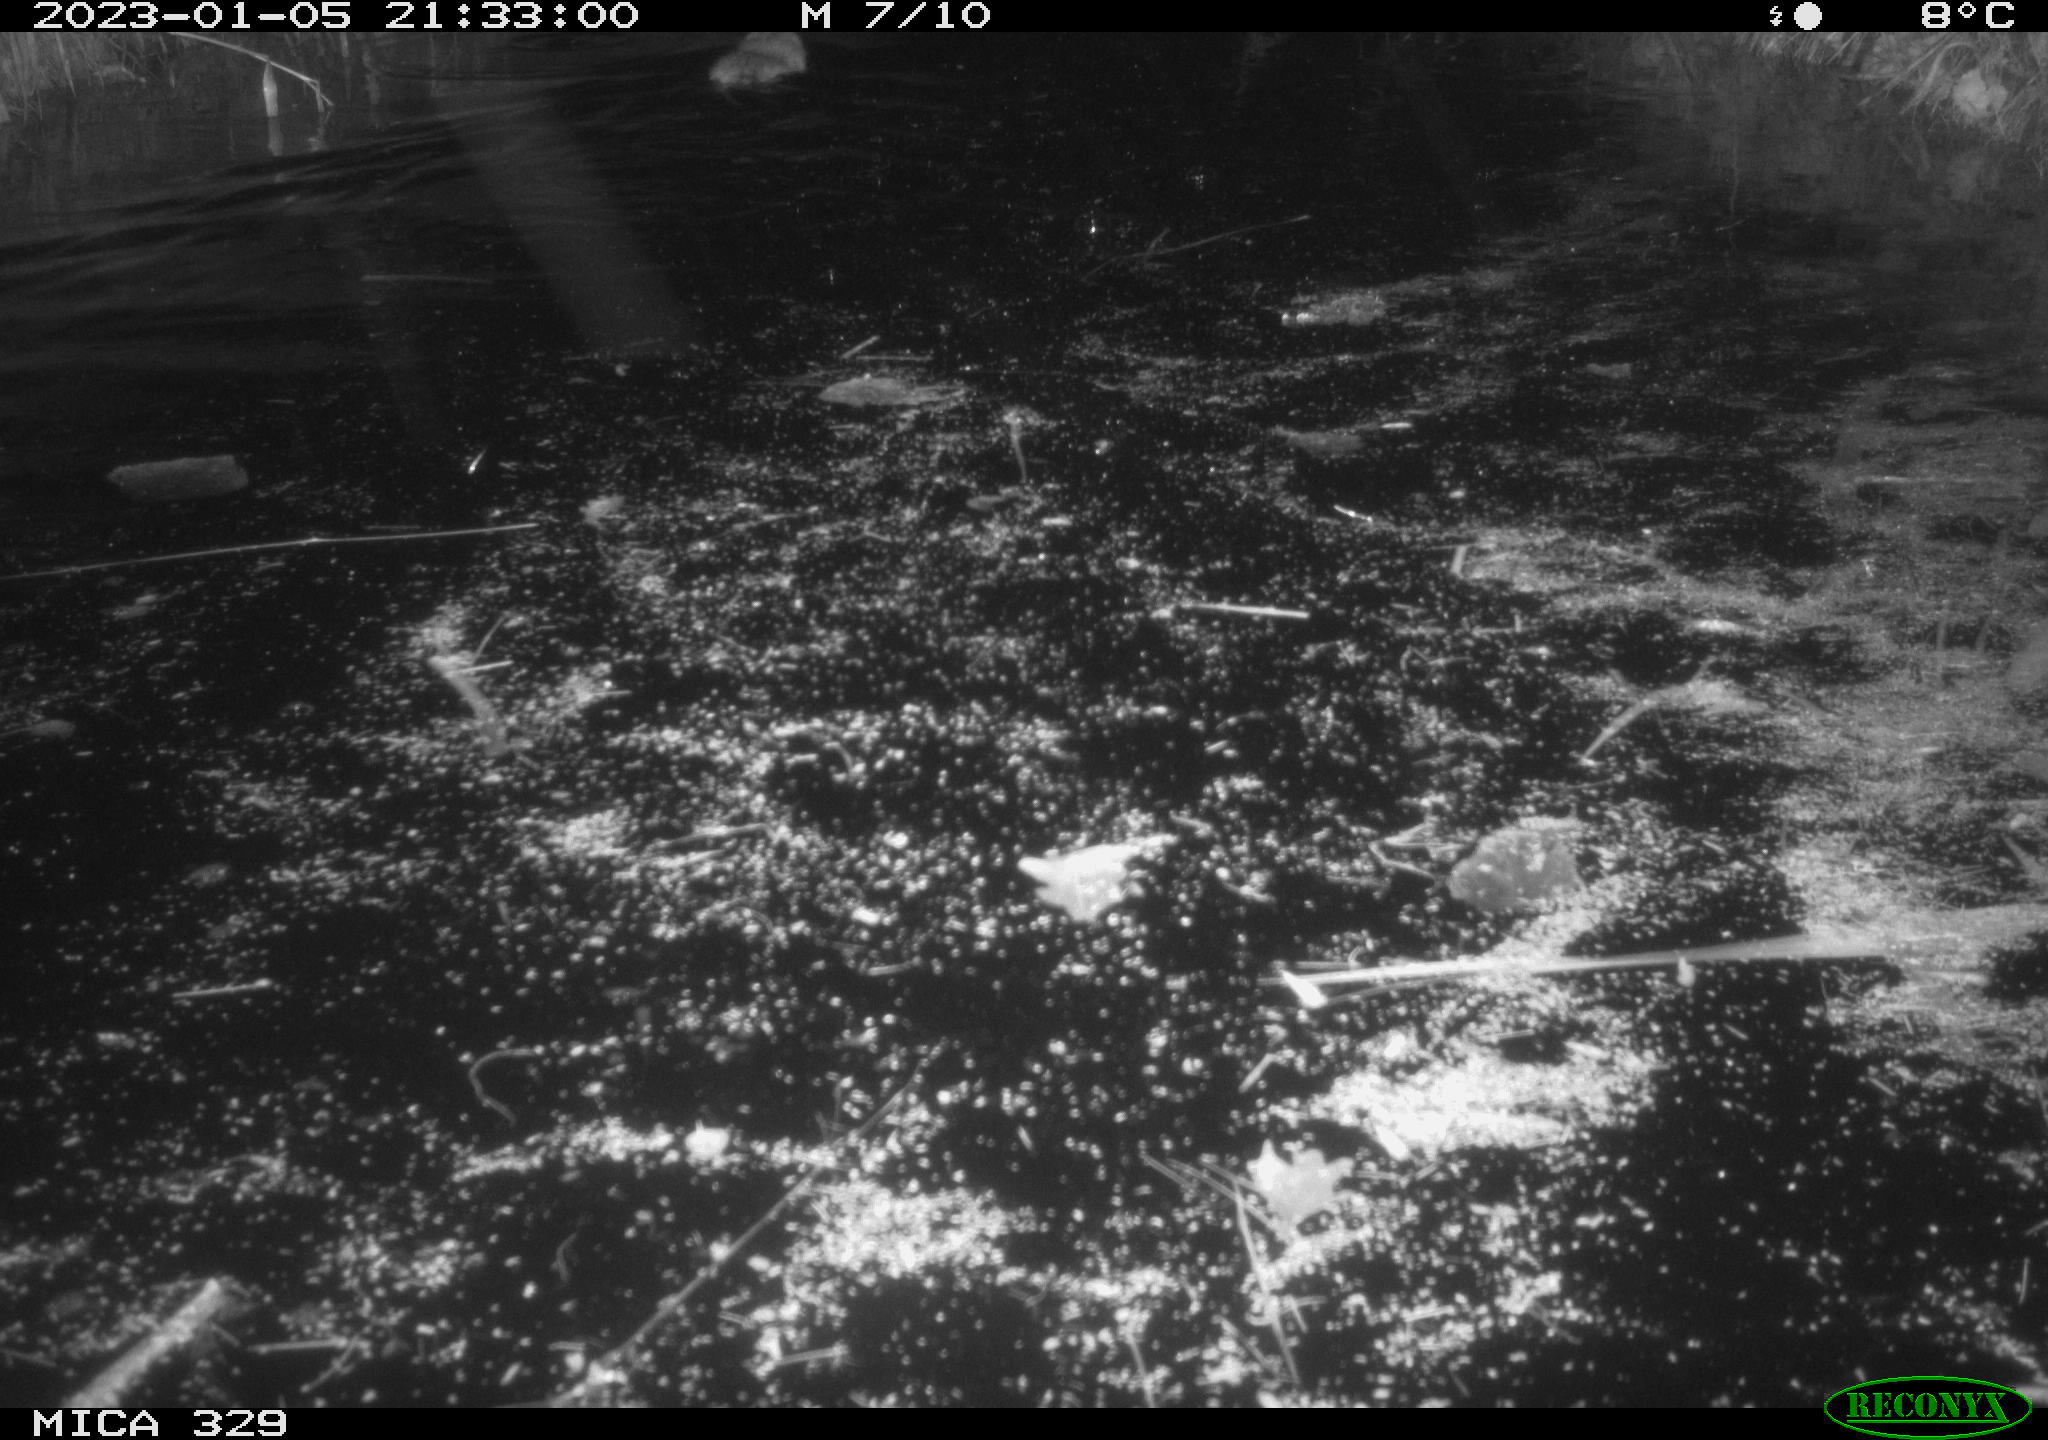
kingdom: Animalia
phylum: Chordata
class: Mammalia
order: Rodentia
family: Cricetidae
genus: Ondatra
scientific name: Ondatra zibethicus
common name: Muskrat
